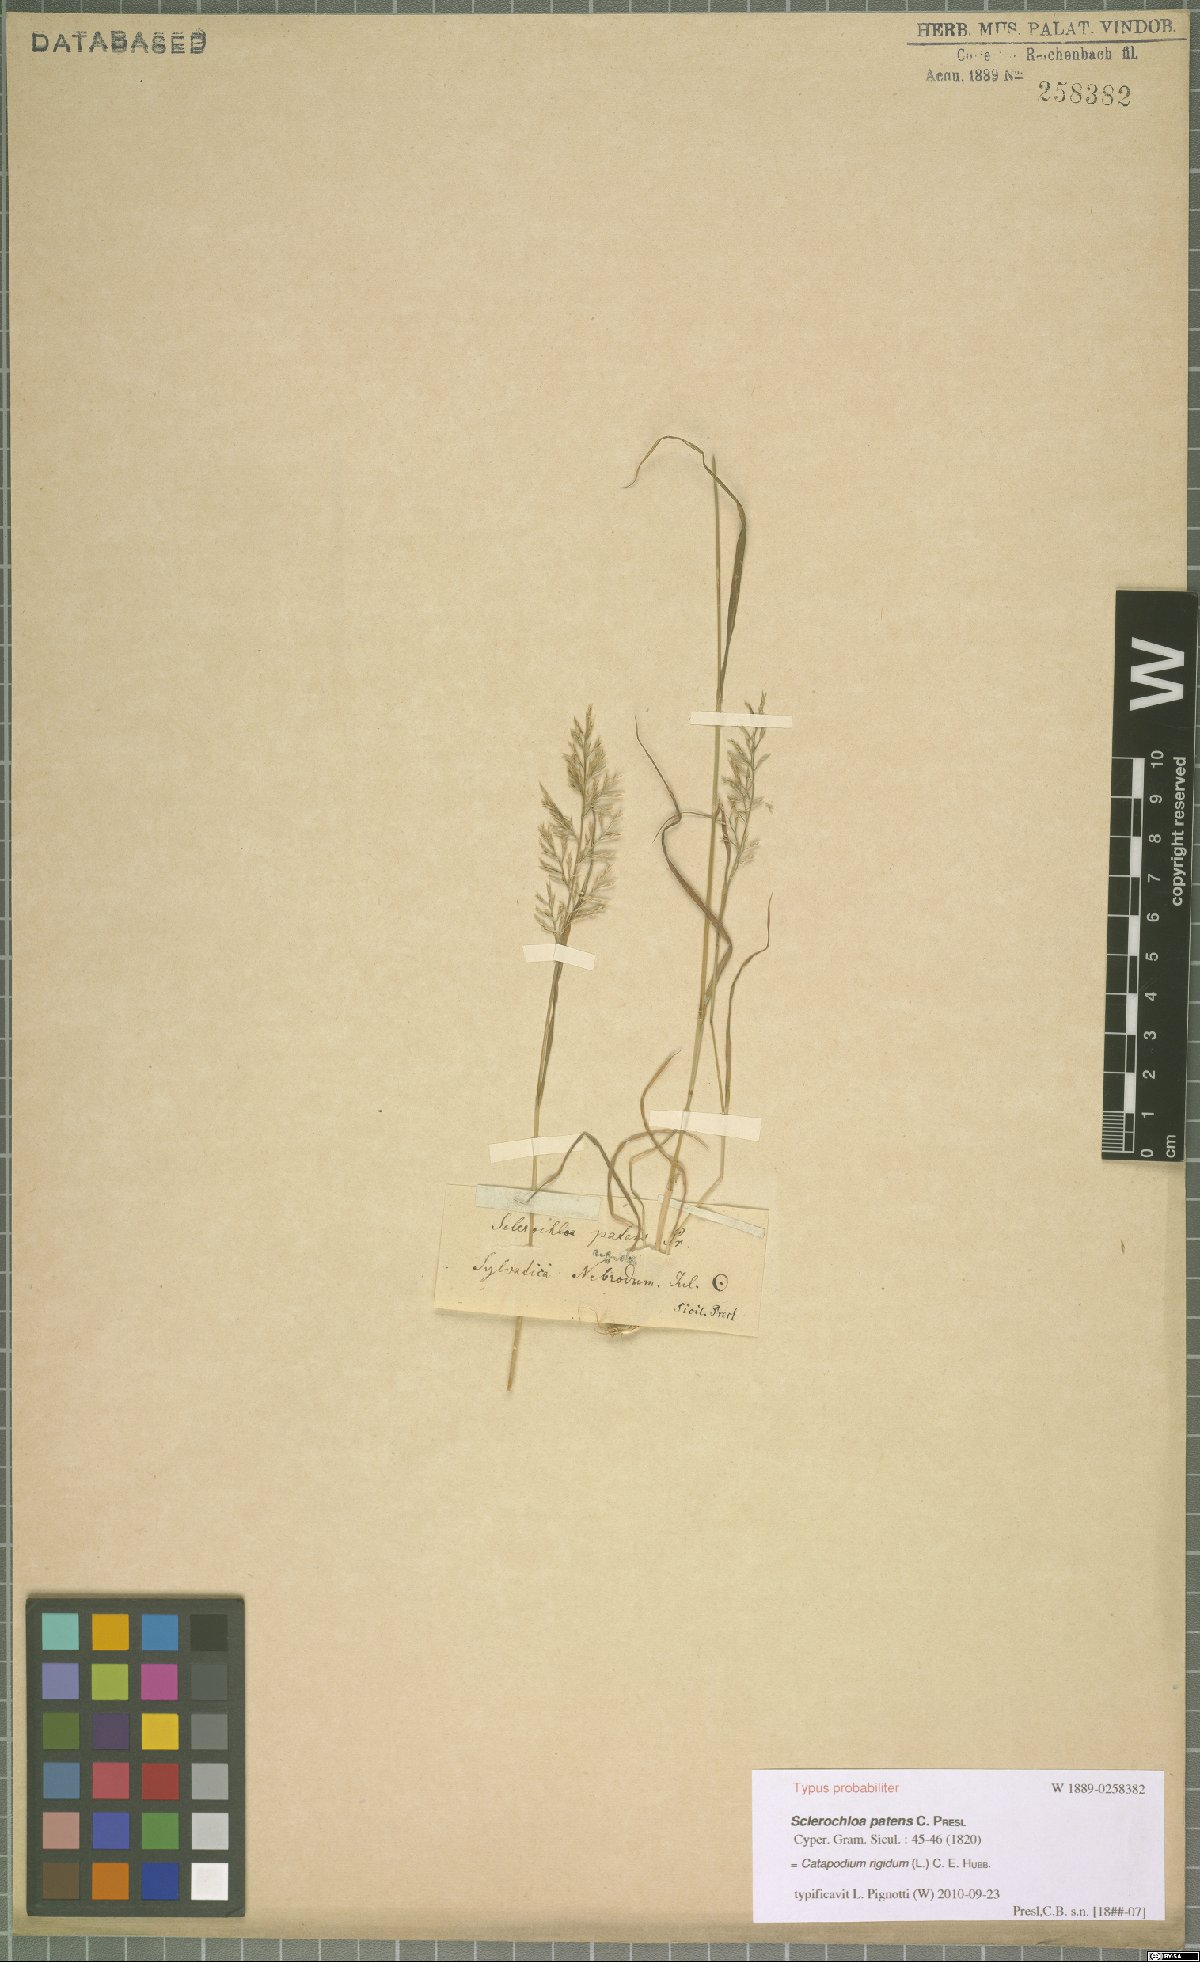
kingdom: Plantae
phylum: Tracheophyta
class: Liliopsida
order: Poales
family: Poaceae
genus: Catapodium
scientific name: Catapodium rigidum
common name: Fern-grass
